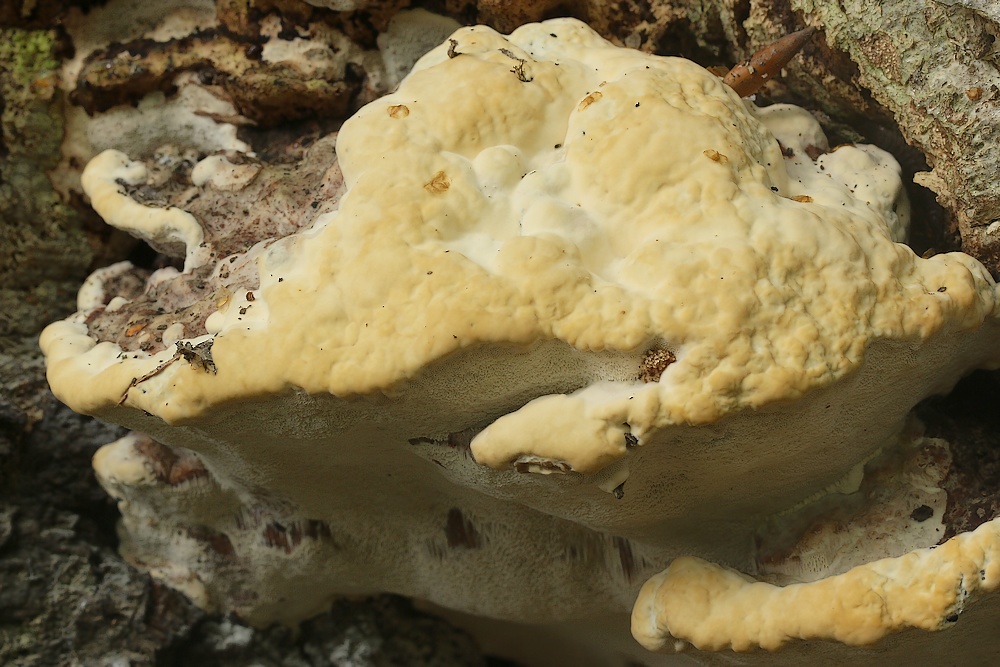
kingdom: Fungi
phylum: Basidiomycota
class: Agaricomycetes
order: Polyporales
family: Polyporaceae
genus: Vanderbylia
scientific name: Vanderbylia fraxinea
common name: stor kanelporesvamp
